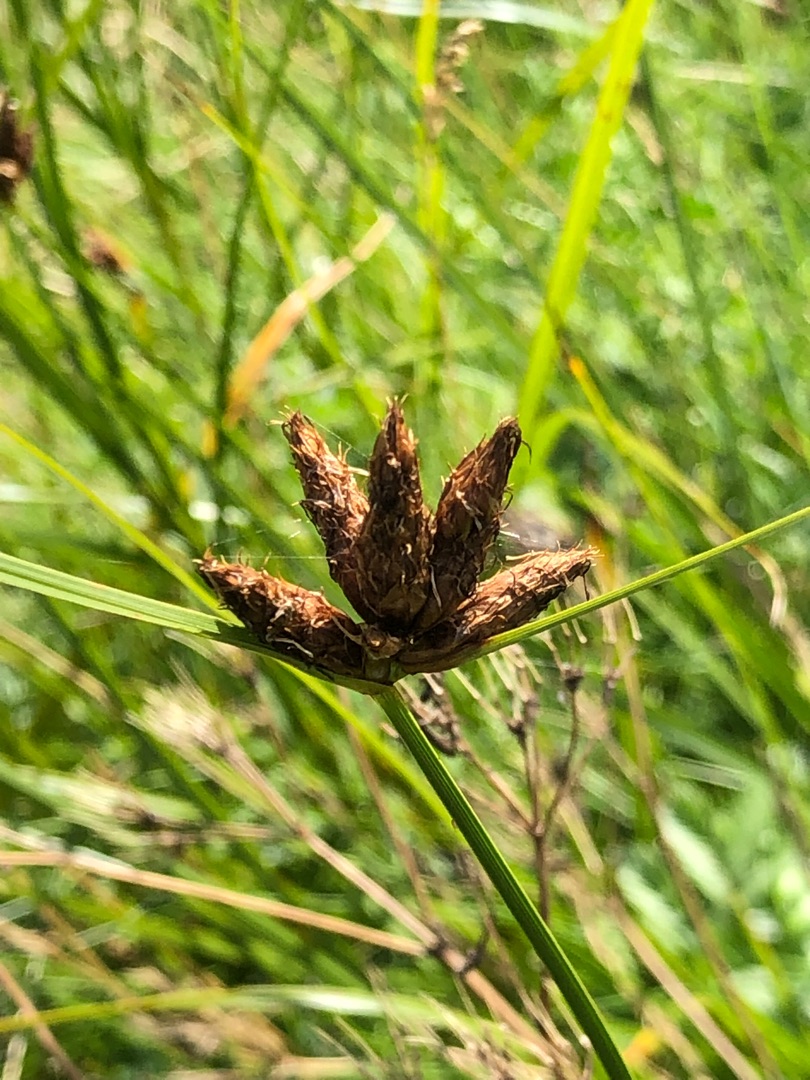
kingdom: Plantae
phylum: Tracheophyta
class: Liliopsida
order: Poales
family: Cyperaceae
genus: Bolboschoenus
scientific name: Bolboschoenus maritimus
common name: Strand-kogleaks
